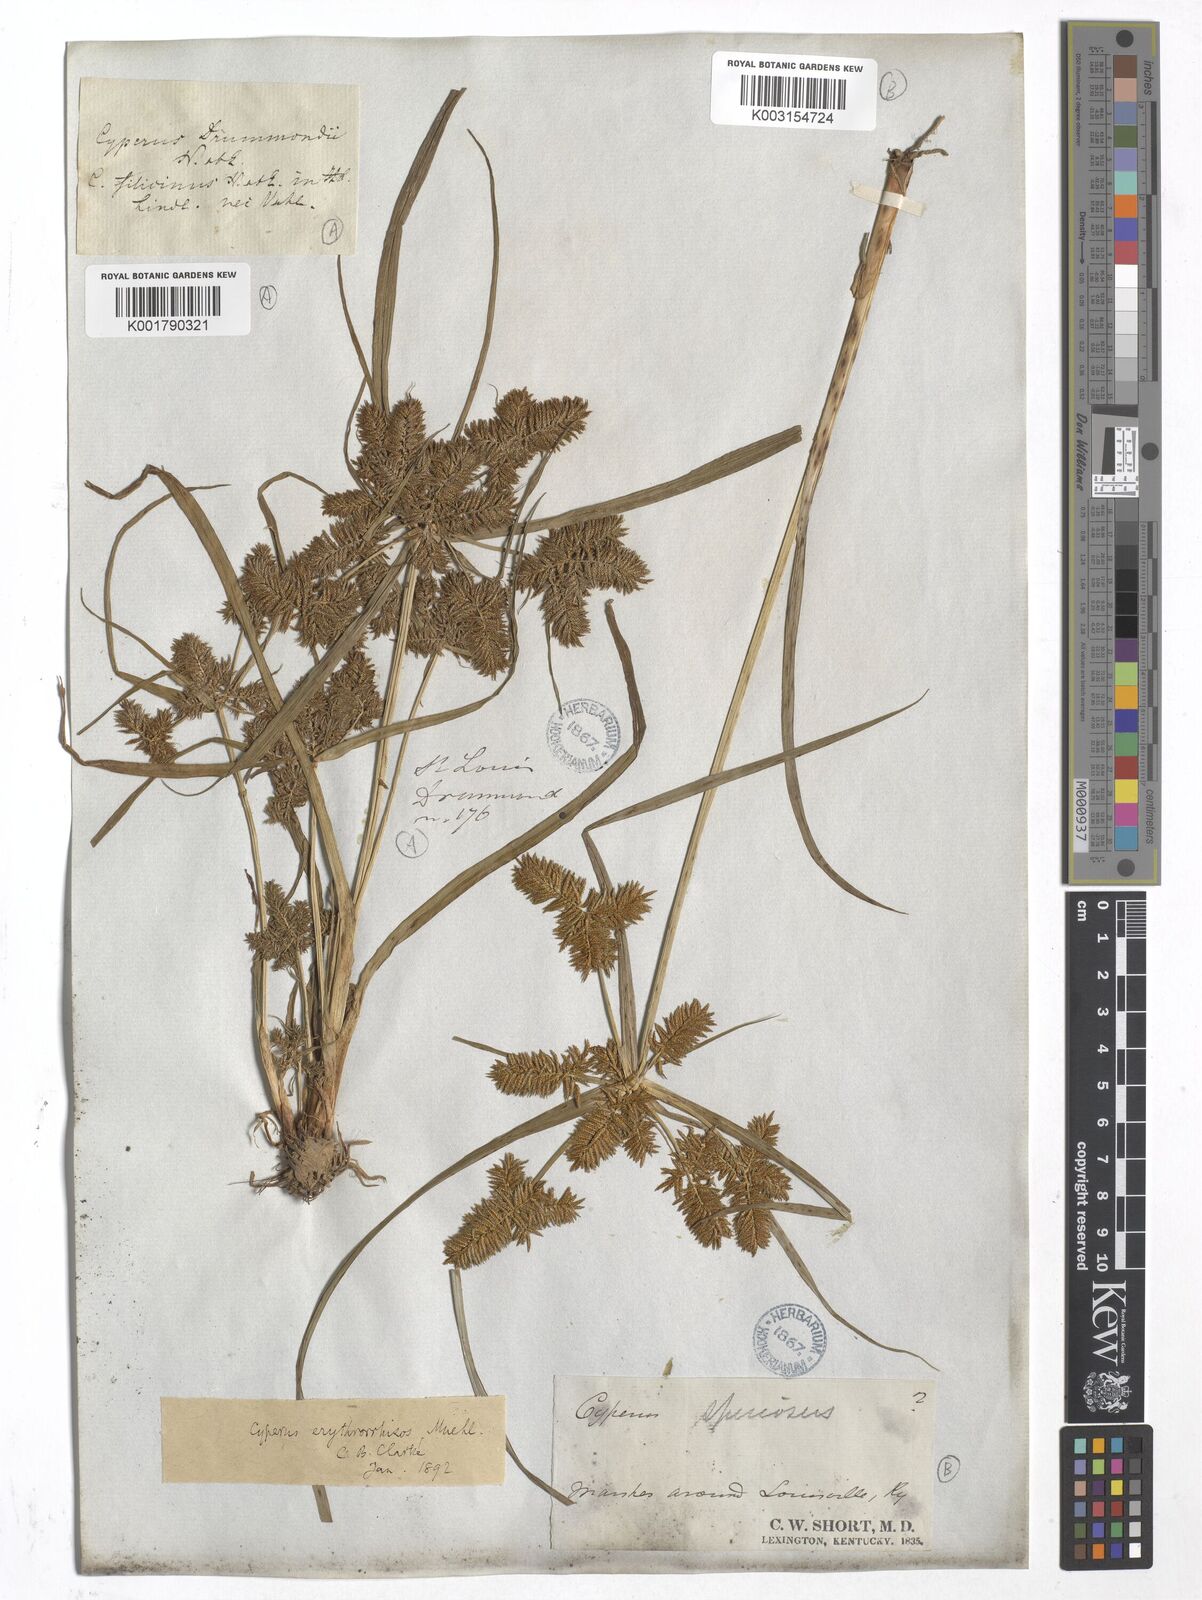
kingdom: Plantae
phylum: Tracheophyta
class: Liliopsida
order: Poales
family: Cyperaceae
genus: Cyperus
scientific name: Cyperus drummondii
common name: Green flat sedge
